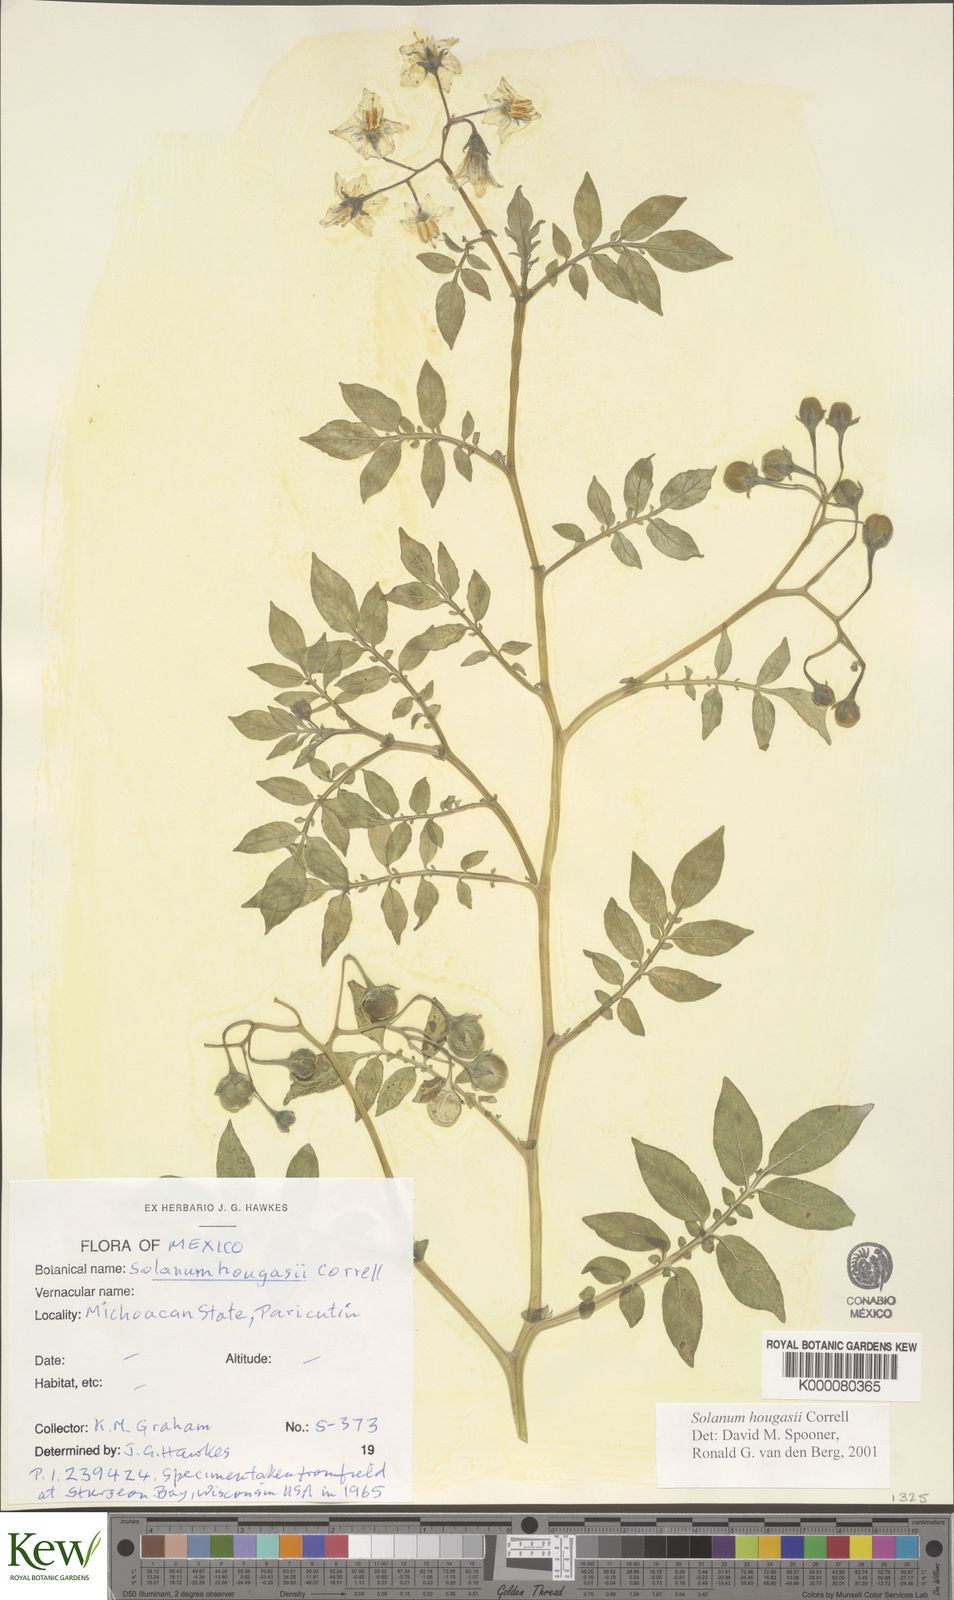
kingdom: Plantae
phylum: Tracheophyta
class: Magnoliopsida
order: Solanales
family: Solanaceae
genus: Solanum
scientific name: Solanum hougasii
